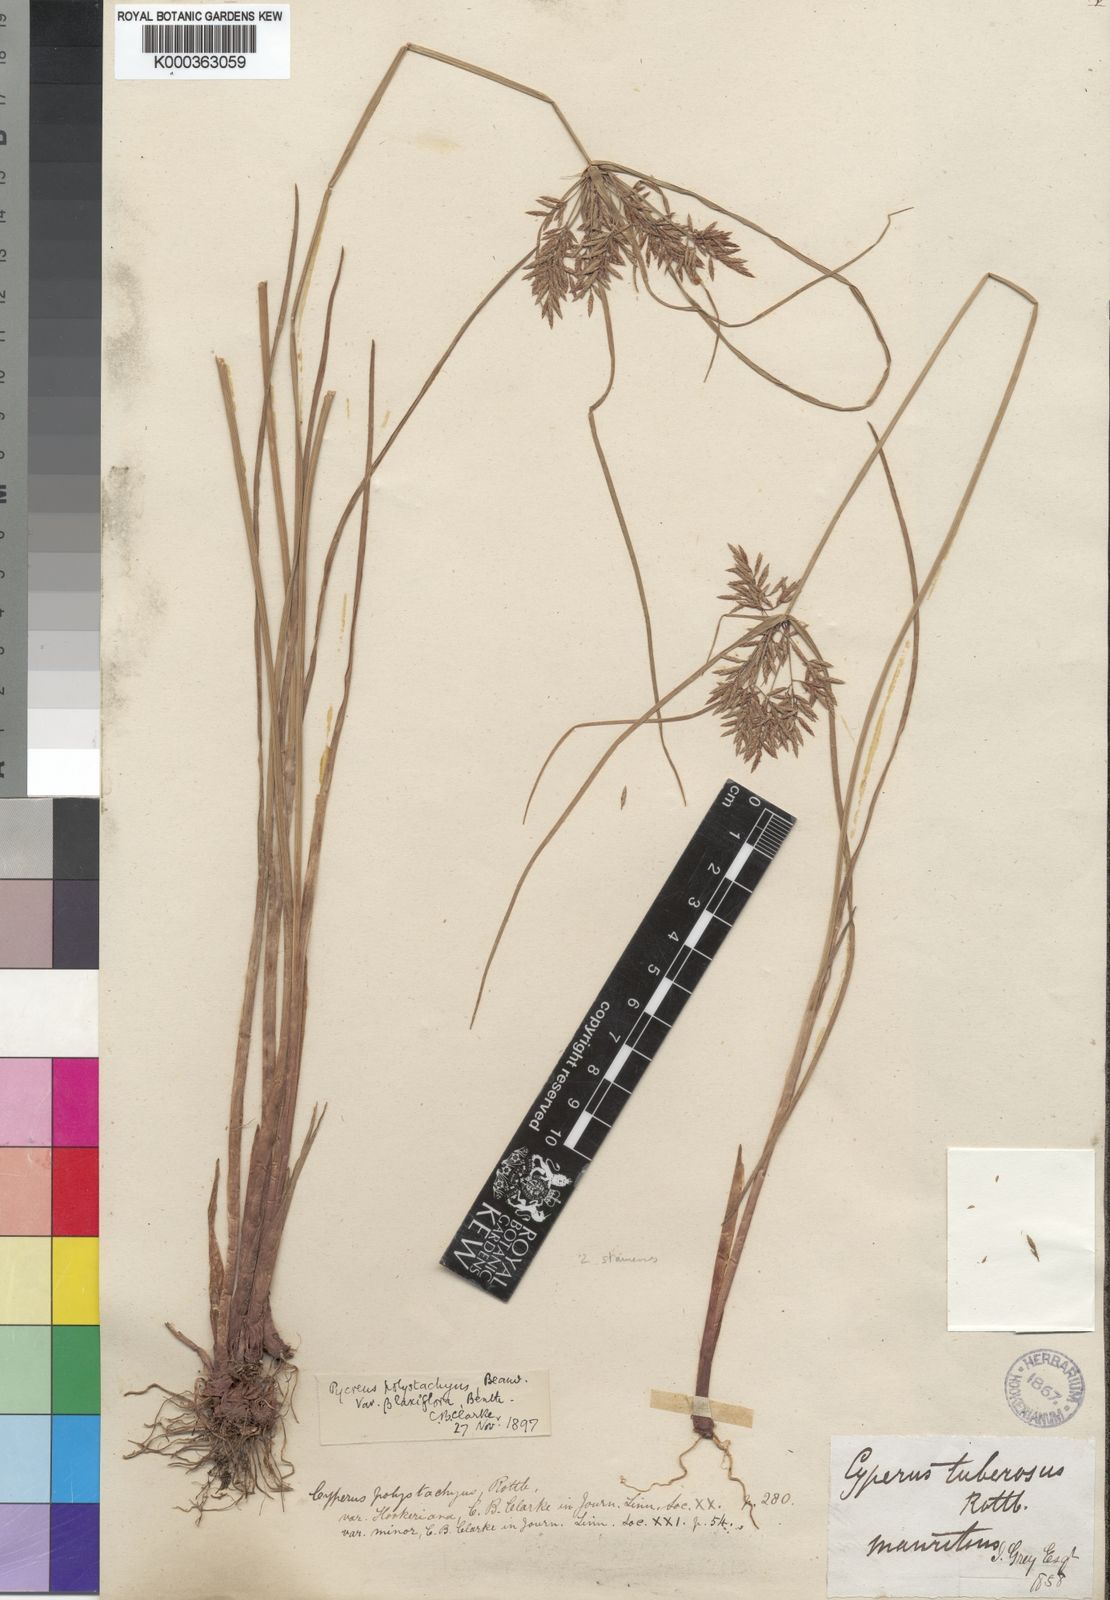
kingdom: Plantae
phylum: Tracheophyta
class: Liliopsida
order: Poales
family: Cyperaceae
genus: Cyperus
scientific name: Cyperus polystachyos
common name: Bunchy flat sedge
